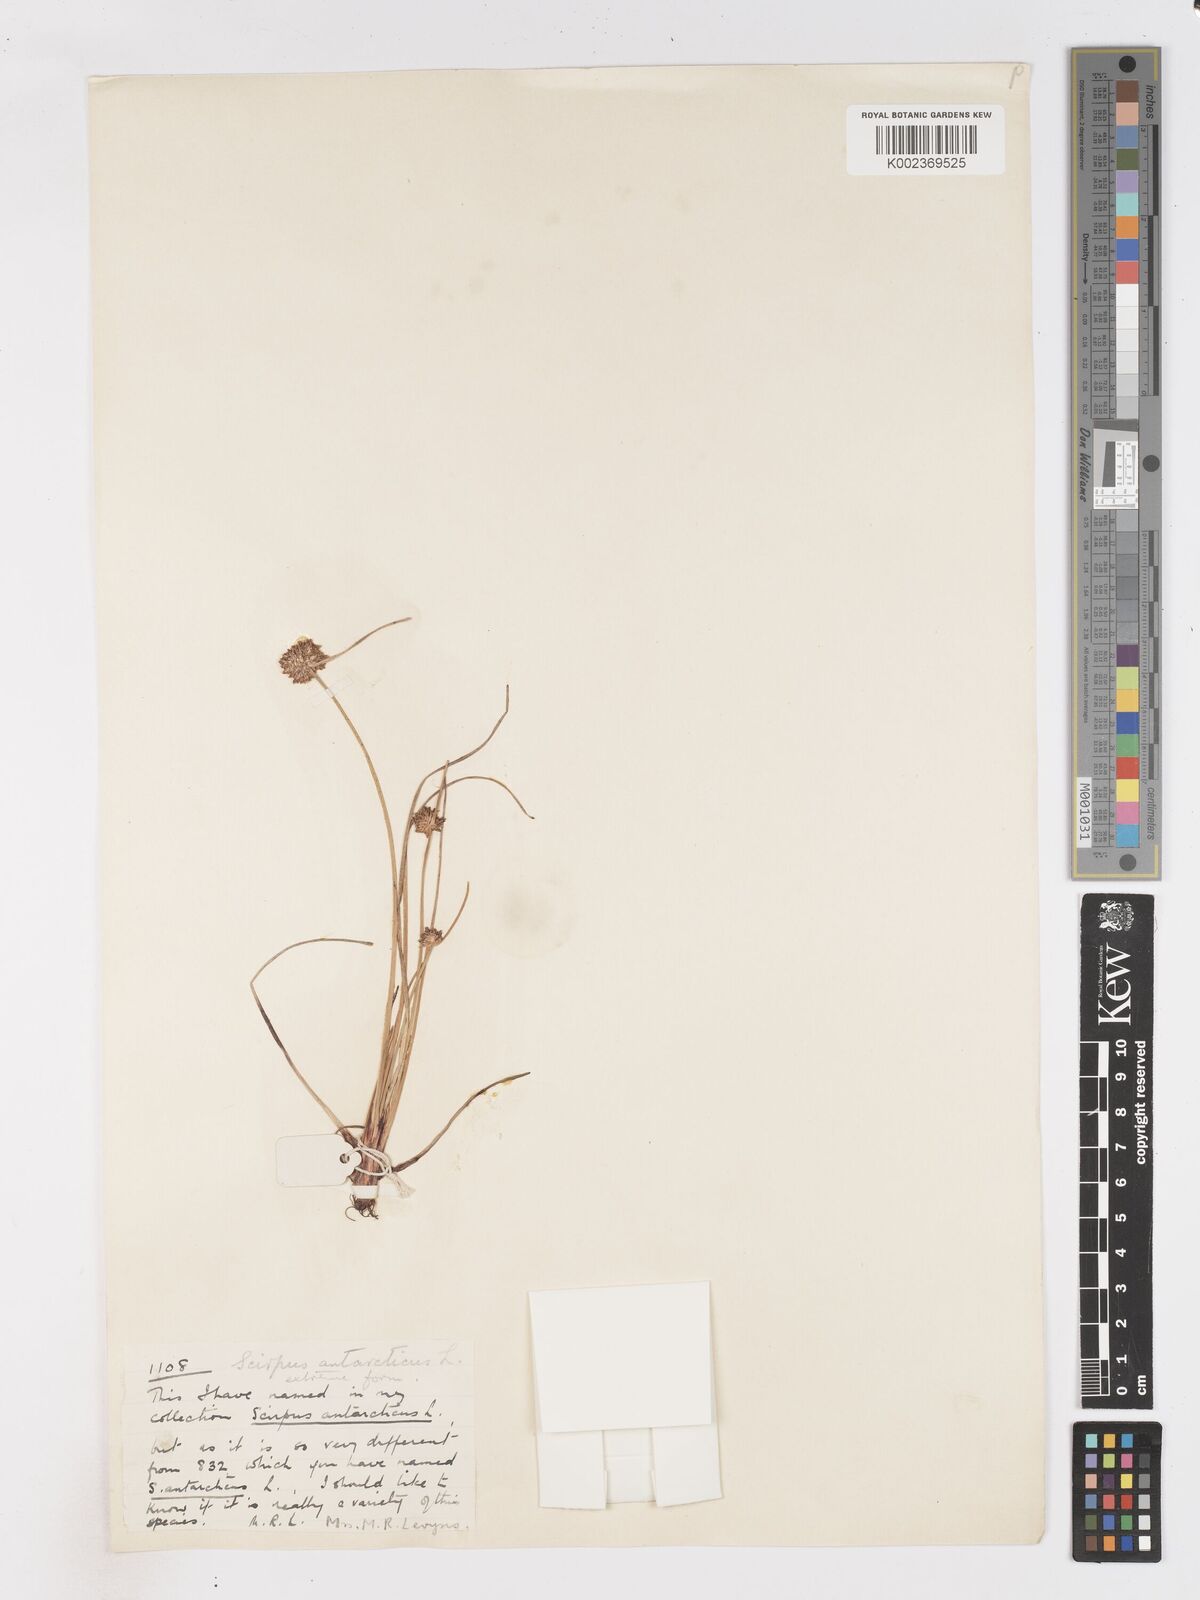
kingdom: Plantae
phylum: Tracheophyta
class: Liliopsida
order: Poales
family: Cyperaceae
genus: Isolepis
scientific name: Isolepis antarctica
